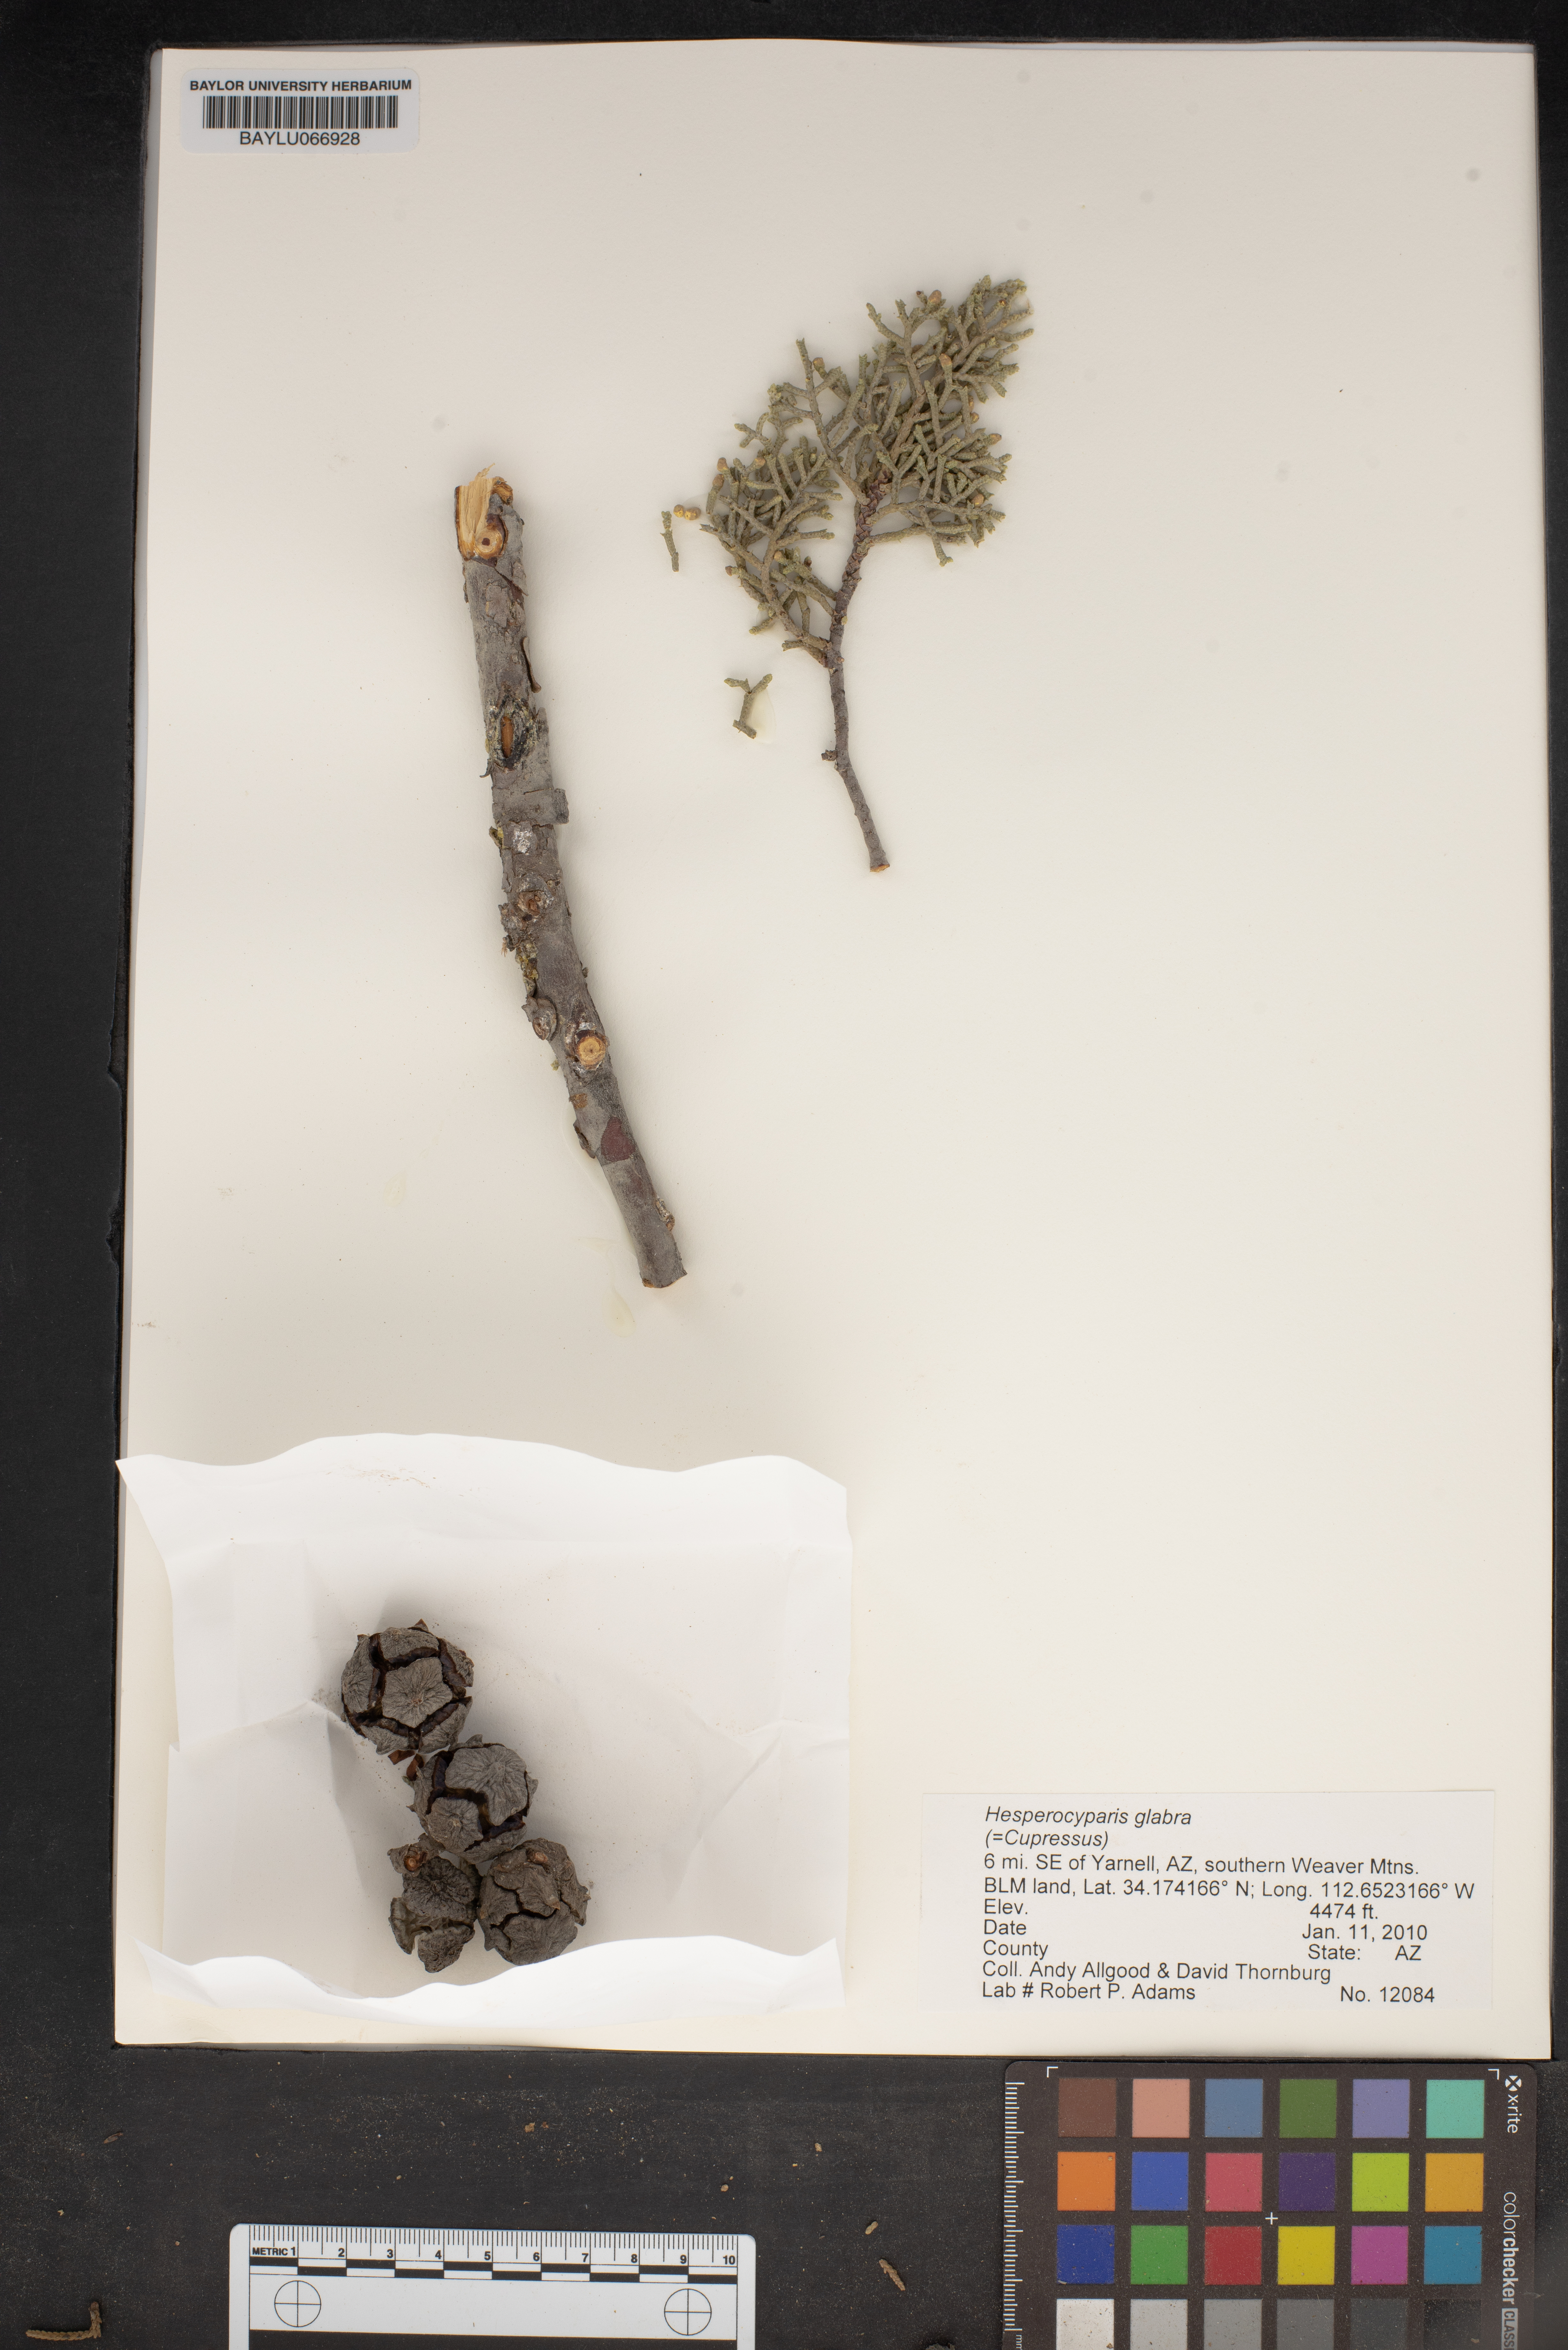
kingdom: Plantae
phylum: Tracheophyta
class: Pinopsida
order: Pinales
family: Cupressaceae
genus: Cupressus
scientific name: Cupressus arizonica
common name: Arizona cypress
